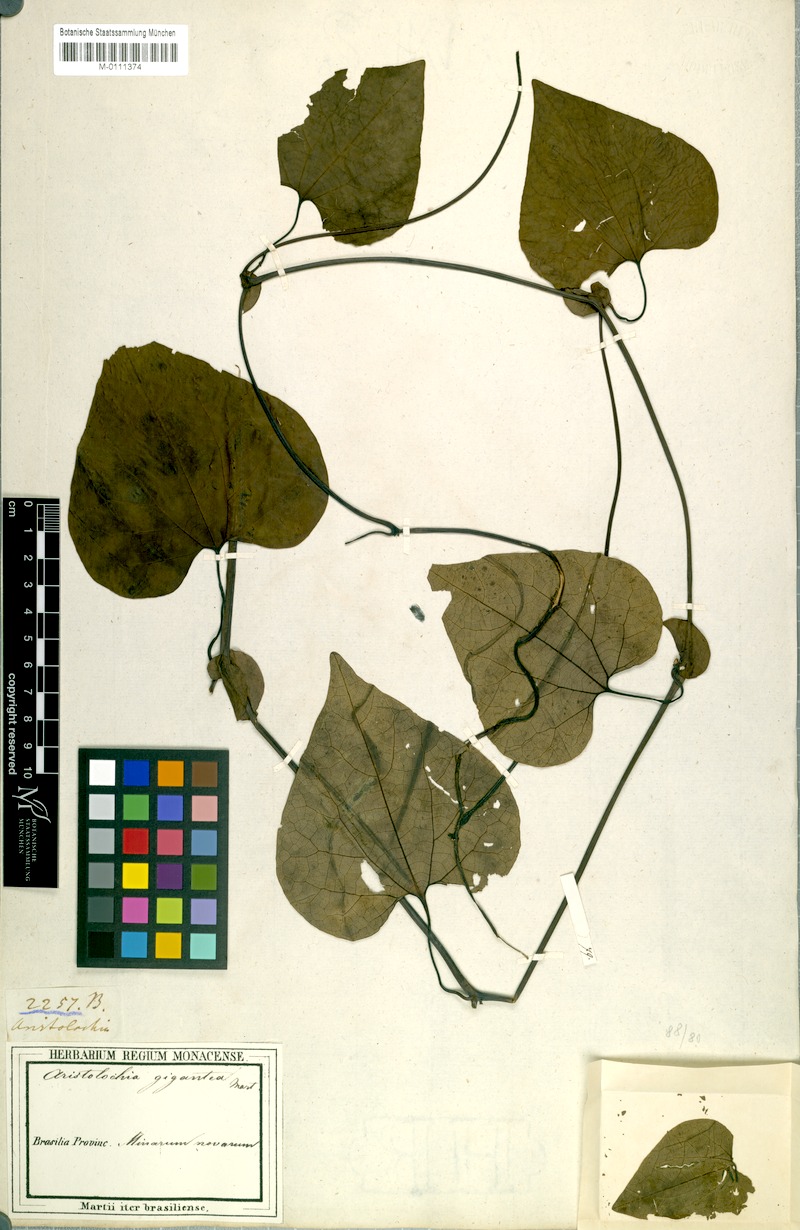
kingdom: Plantae
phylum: Tracheophyta
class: Magnoliopsida
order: Piperales
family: Aristolochiaceae
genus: Aristolochia
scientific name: Aristolochia gigantea
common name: Duckflower
